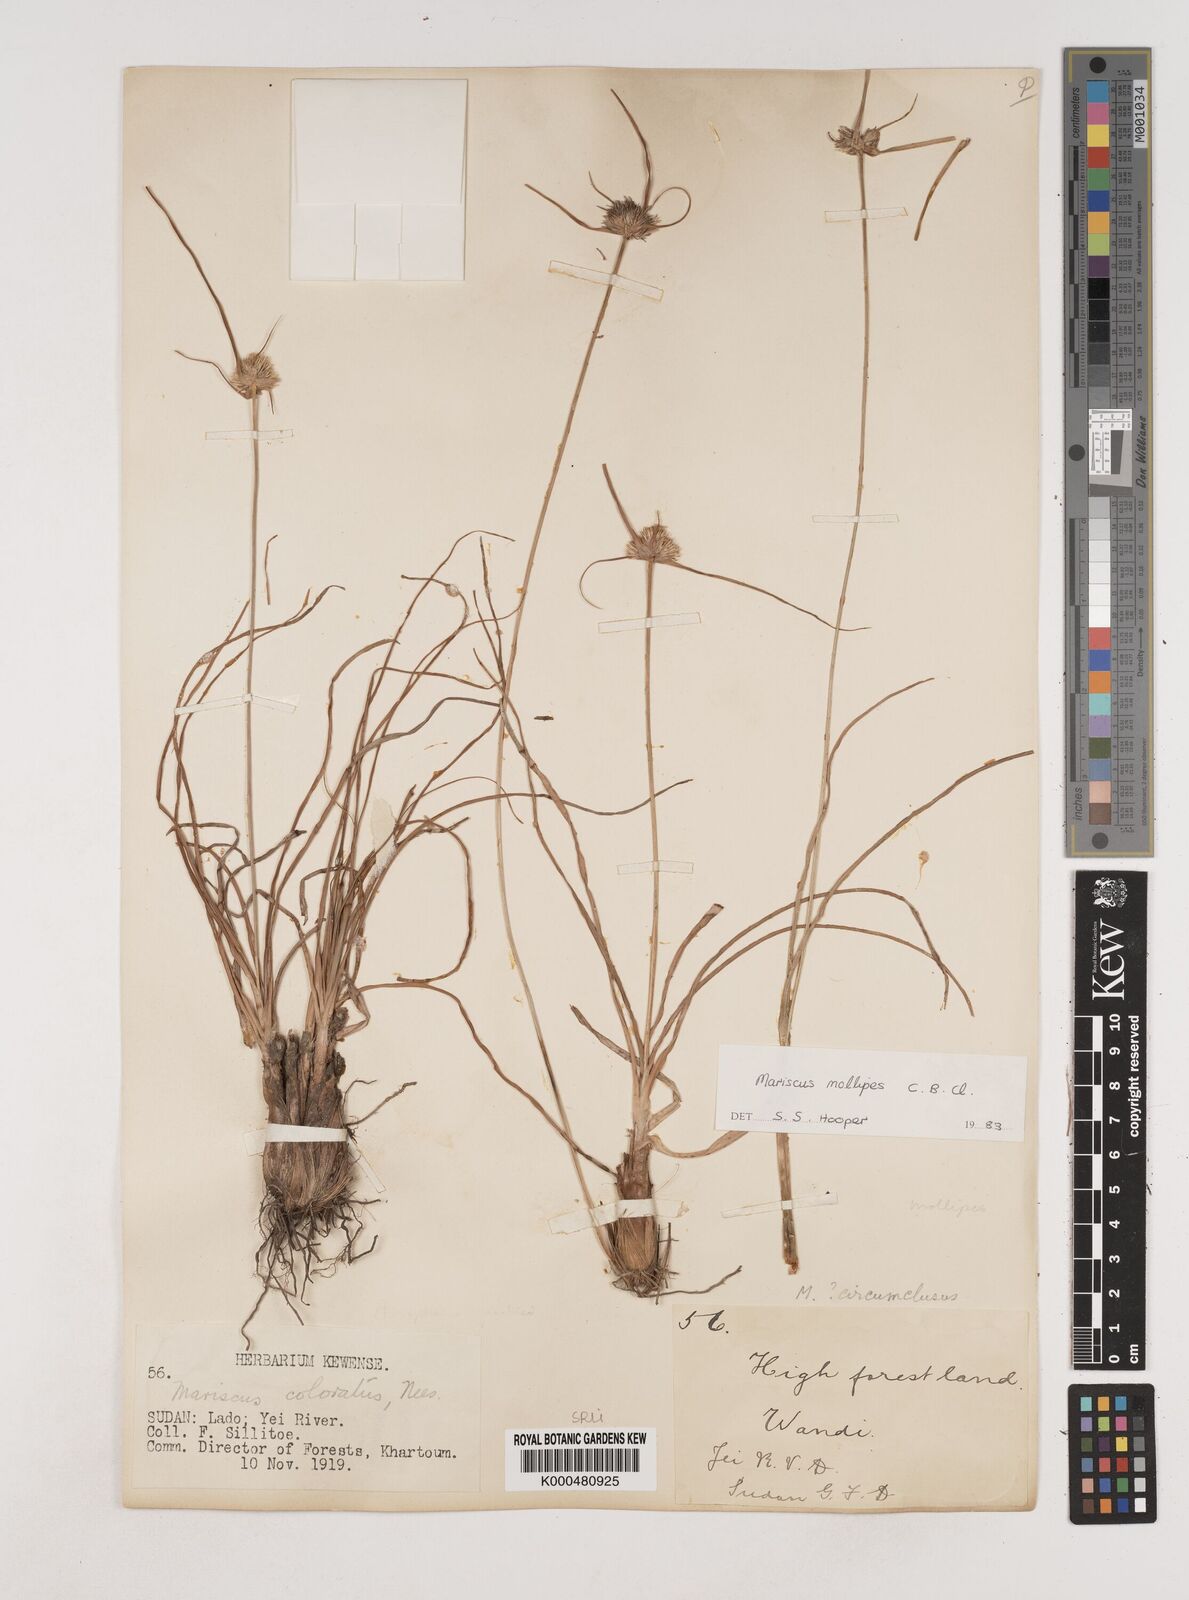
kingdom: Plantae
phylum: Tracheophyta
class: Liliopsida
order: Poales
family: Cyperaceae
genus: Cyperus
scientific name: Cyperus mollipes
